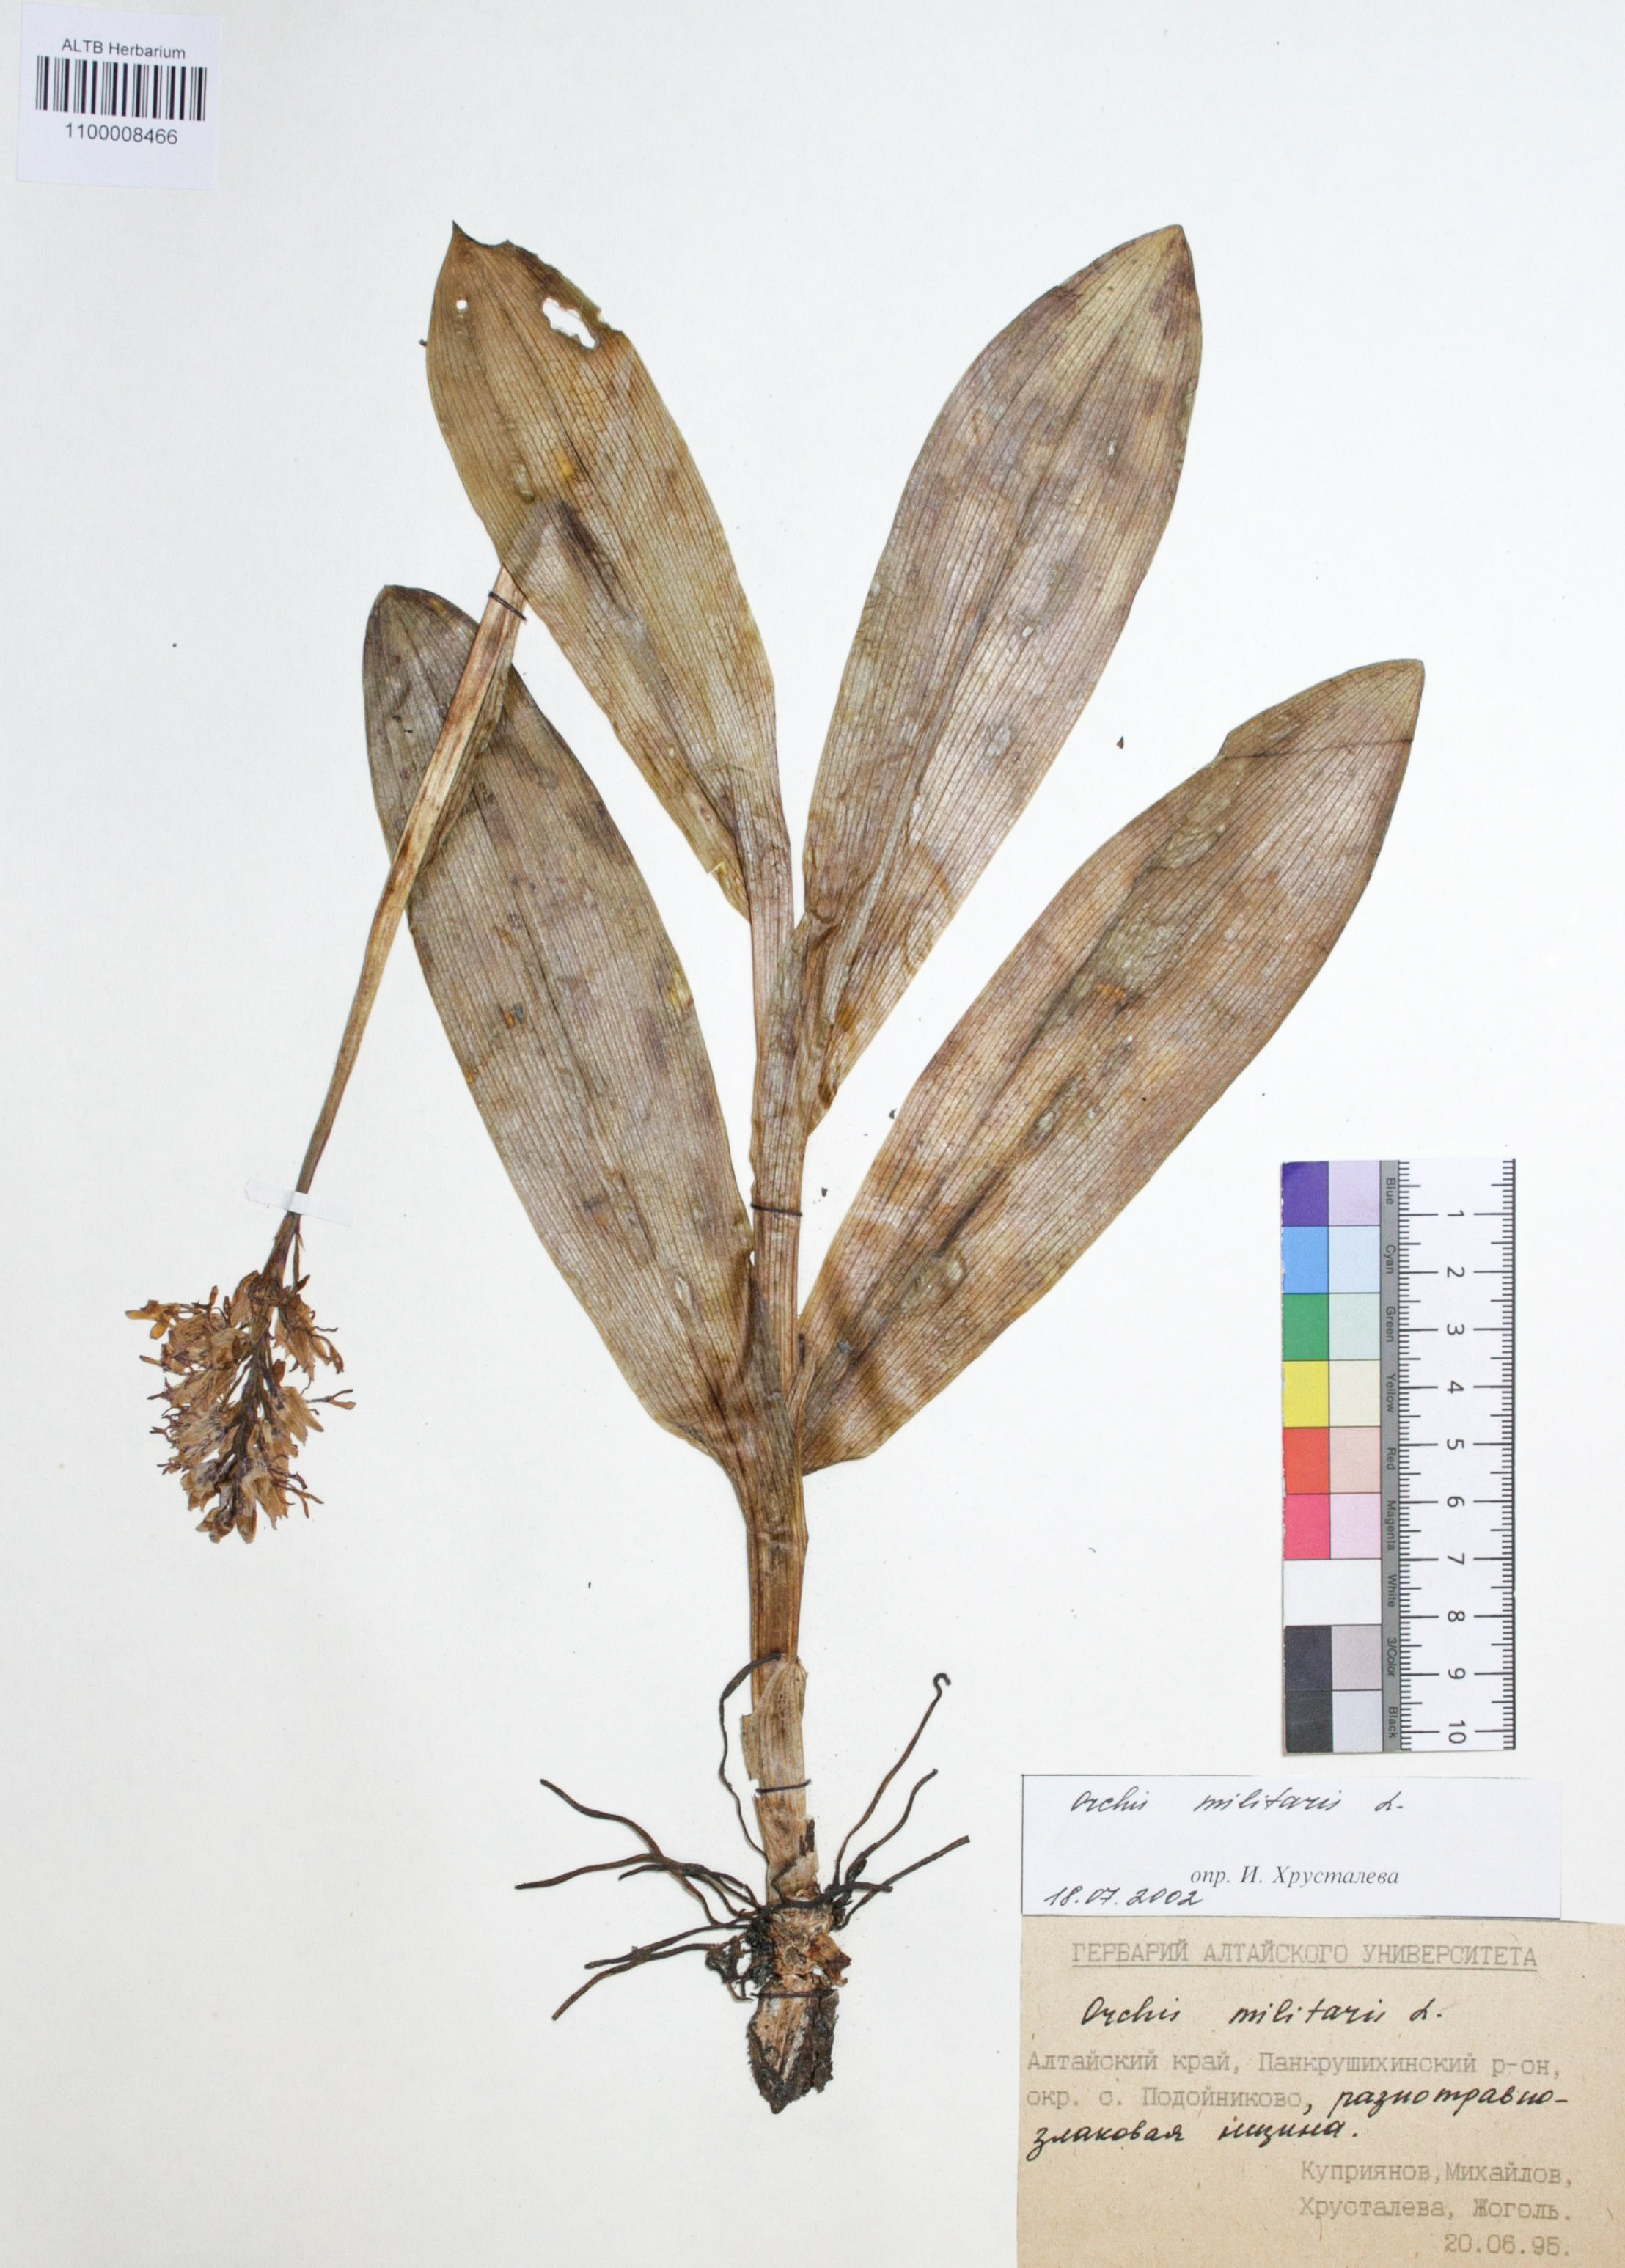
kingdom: Plantae
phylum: Tracheophyta
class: Liliopsida
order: Asparagales
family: Orchidaceae
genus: Orchis
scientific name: Orchis militaris
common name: Military orchid
